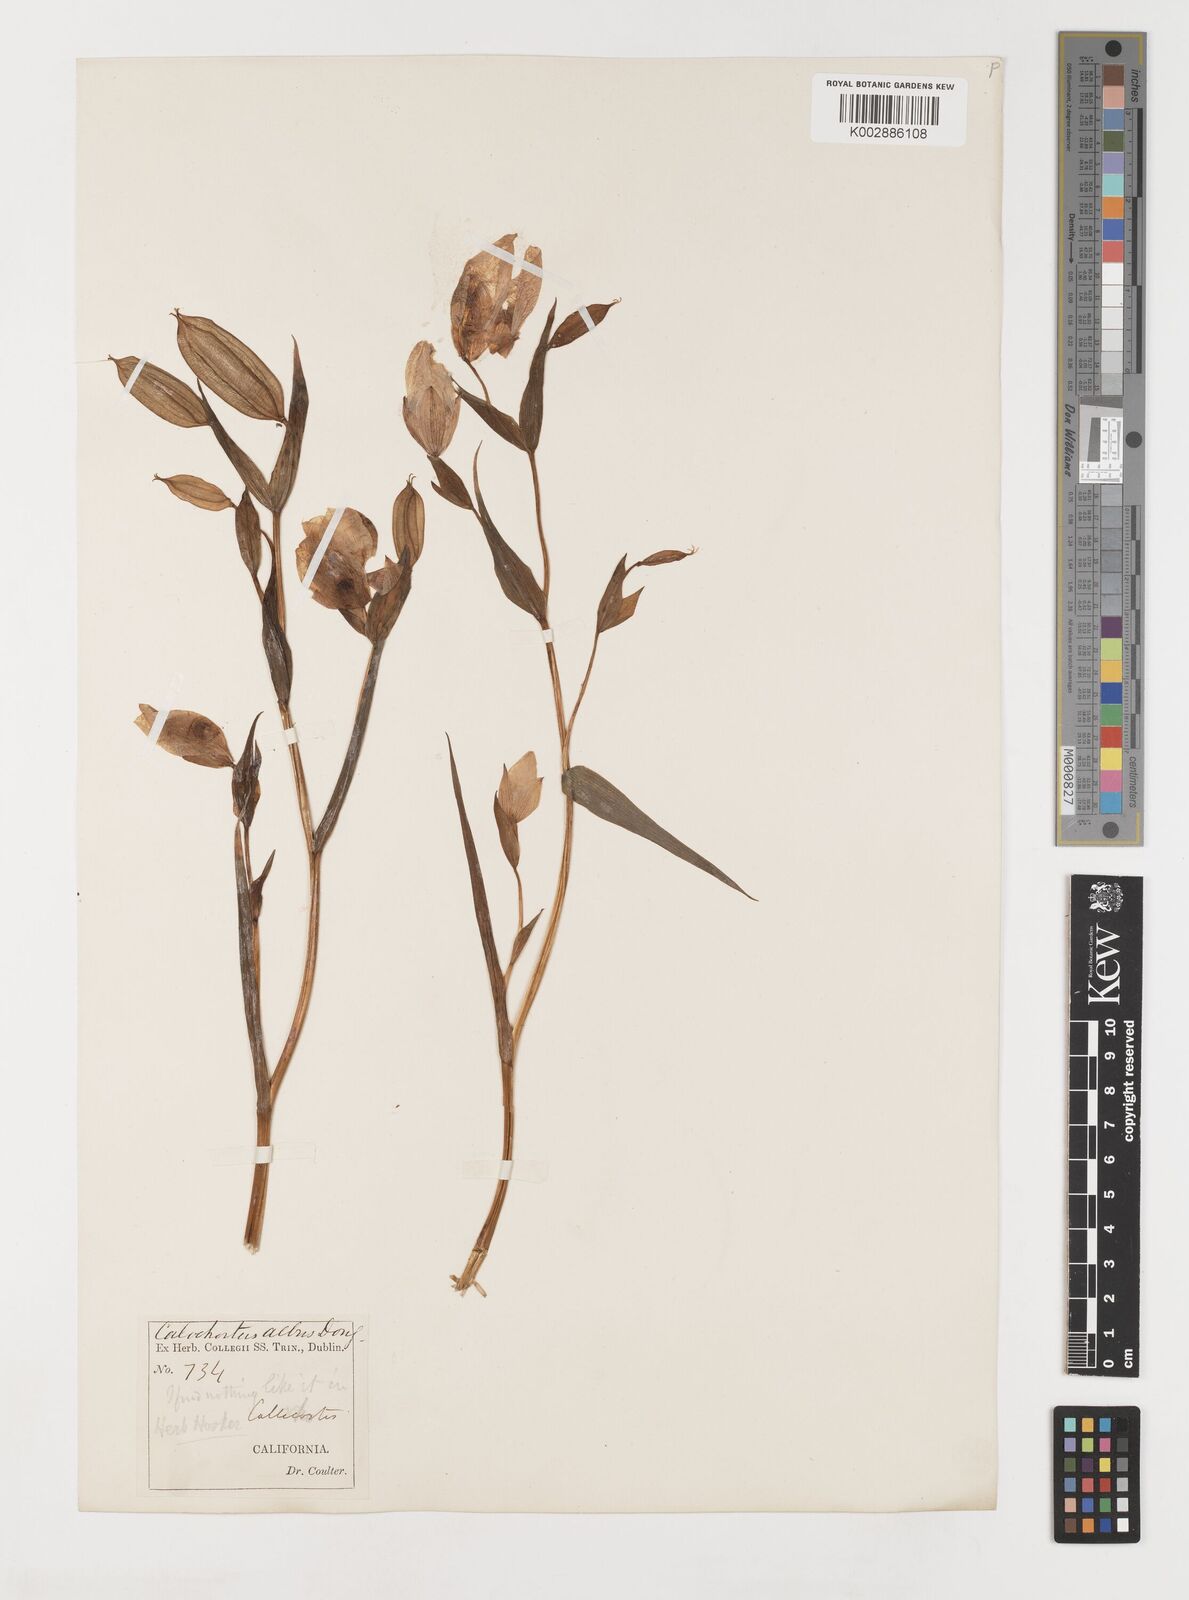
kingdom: Plantae
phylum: Tracheophyta
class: Liliopsida
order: Liliales
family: Liliaceae
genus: Calochortus
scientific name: Calochortus albus
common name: Fairy-lantern
